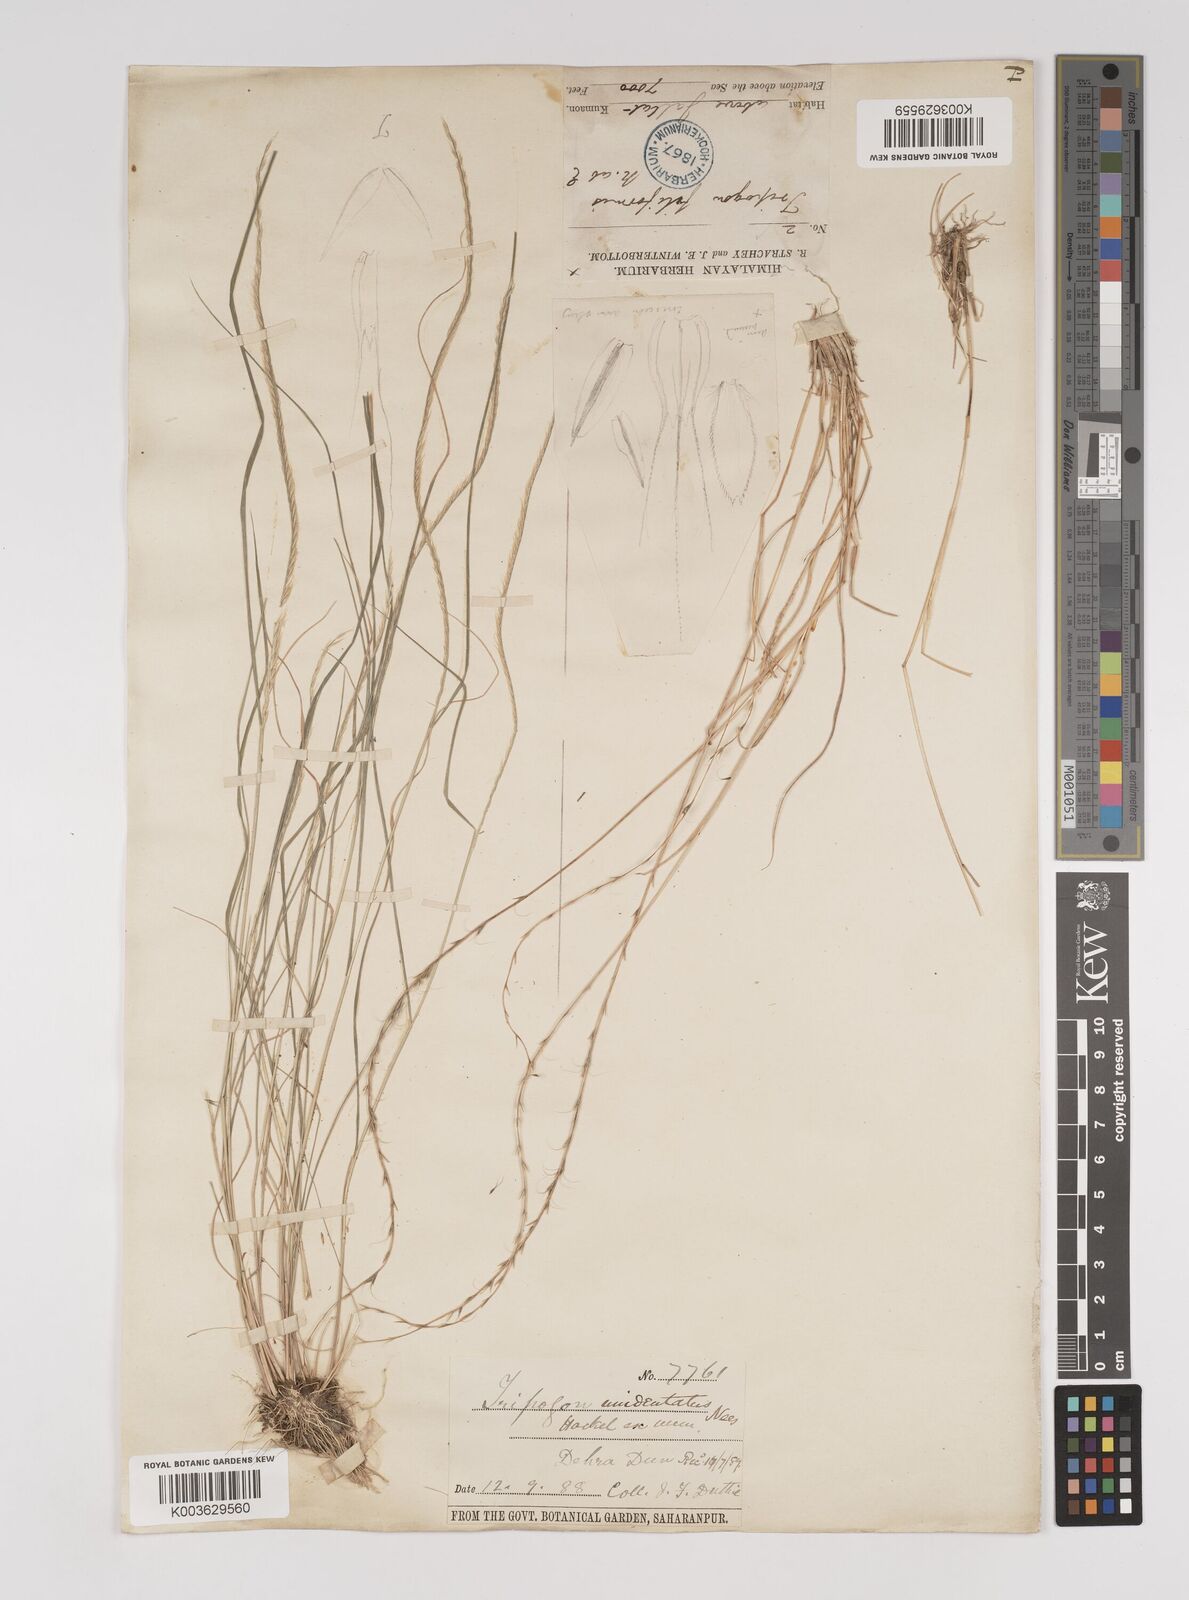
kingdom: Plantae
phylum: Tracheophyta
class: Liliopsida
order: Poales
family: Poaceae
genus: Tripogon
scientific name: Tripogon filiformis
